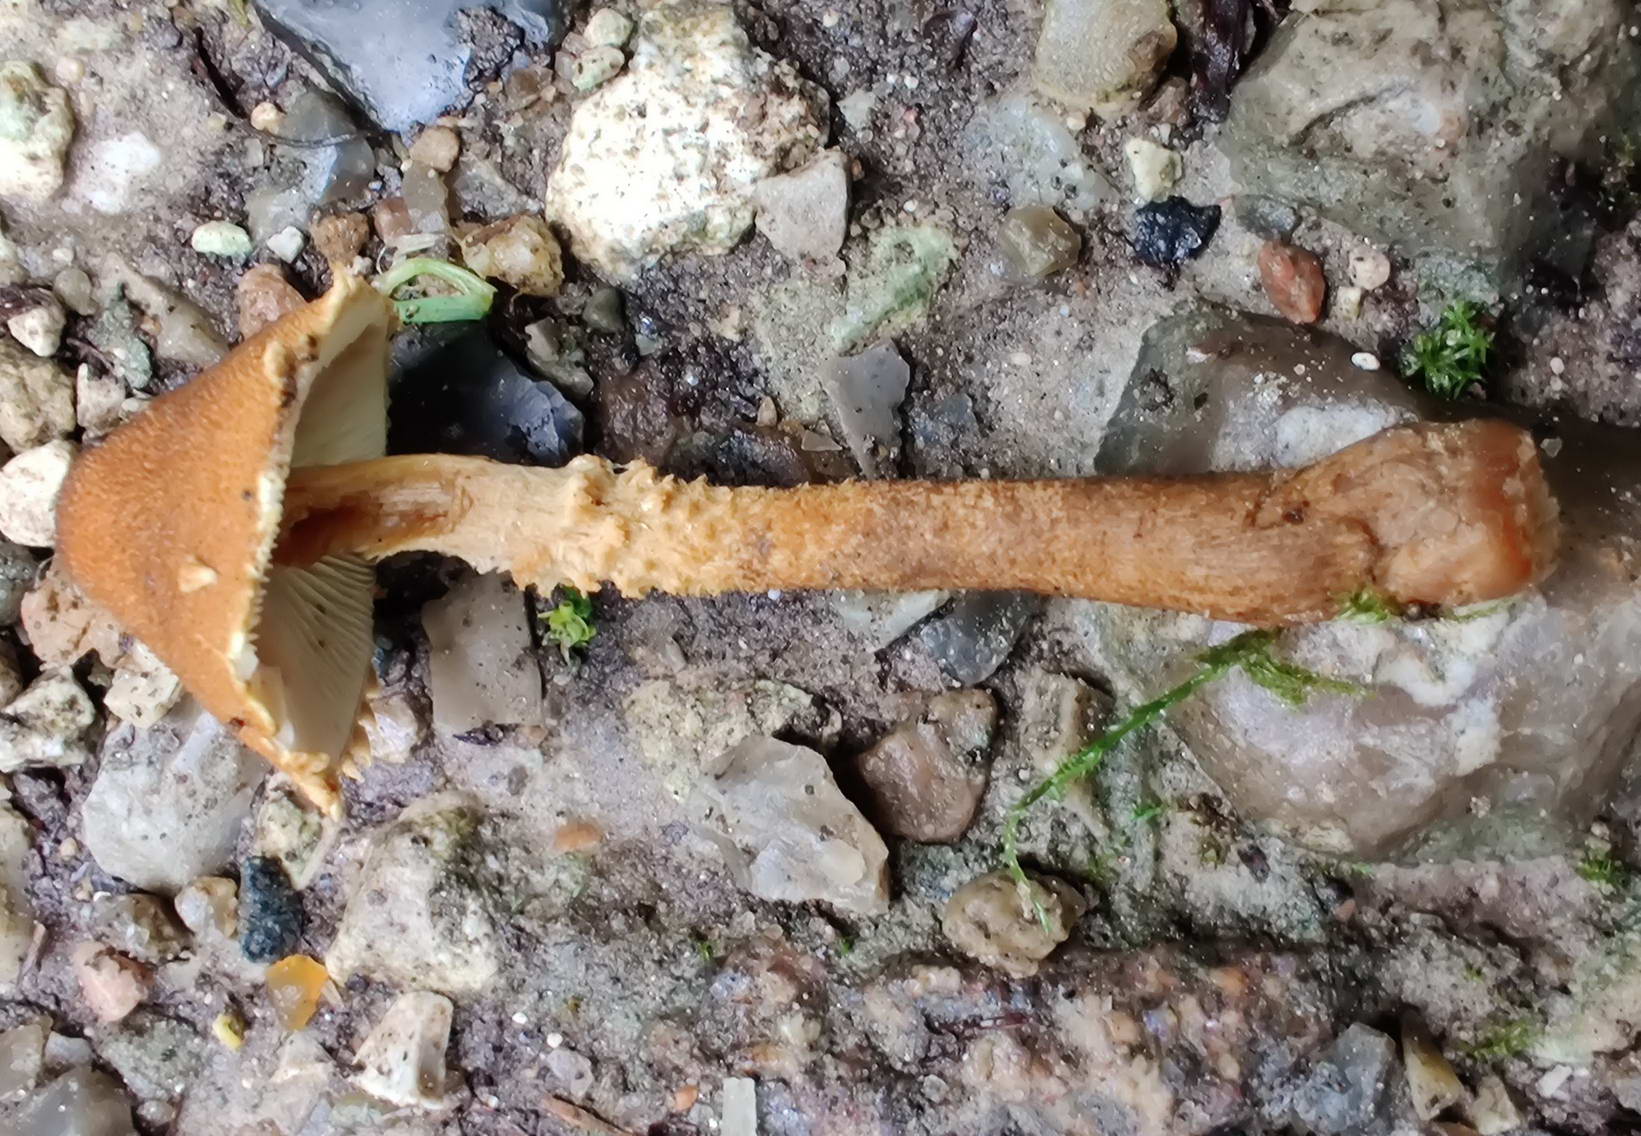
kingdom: Fungi
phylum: Basidiomycota
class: Agaricomycetes
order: Agaricales
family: Agaricaceae
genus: Cystodermella
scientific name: Cystodermella granulosa
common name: kliddet grynhat
